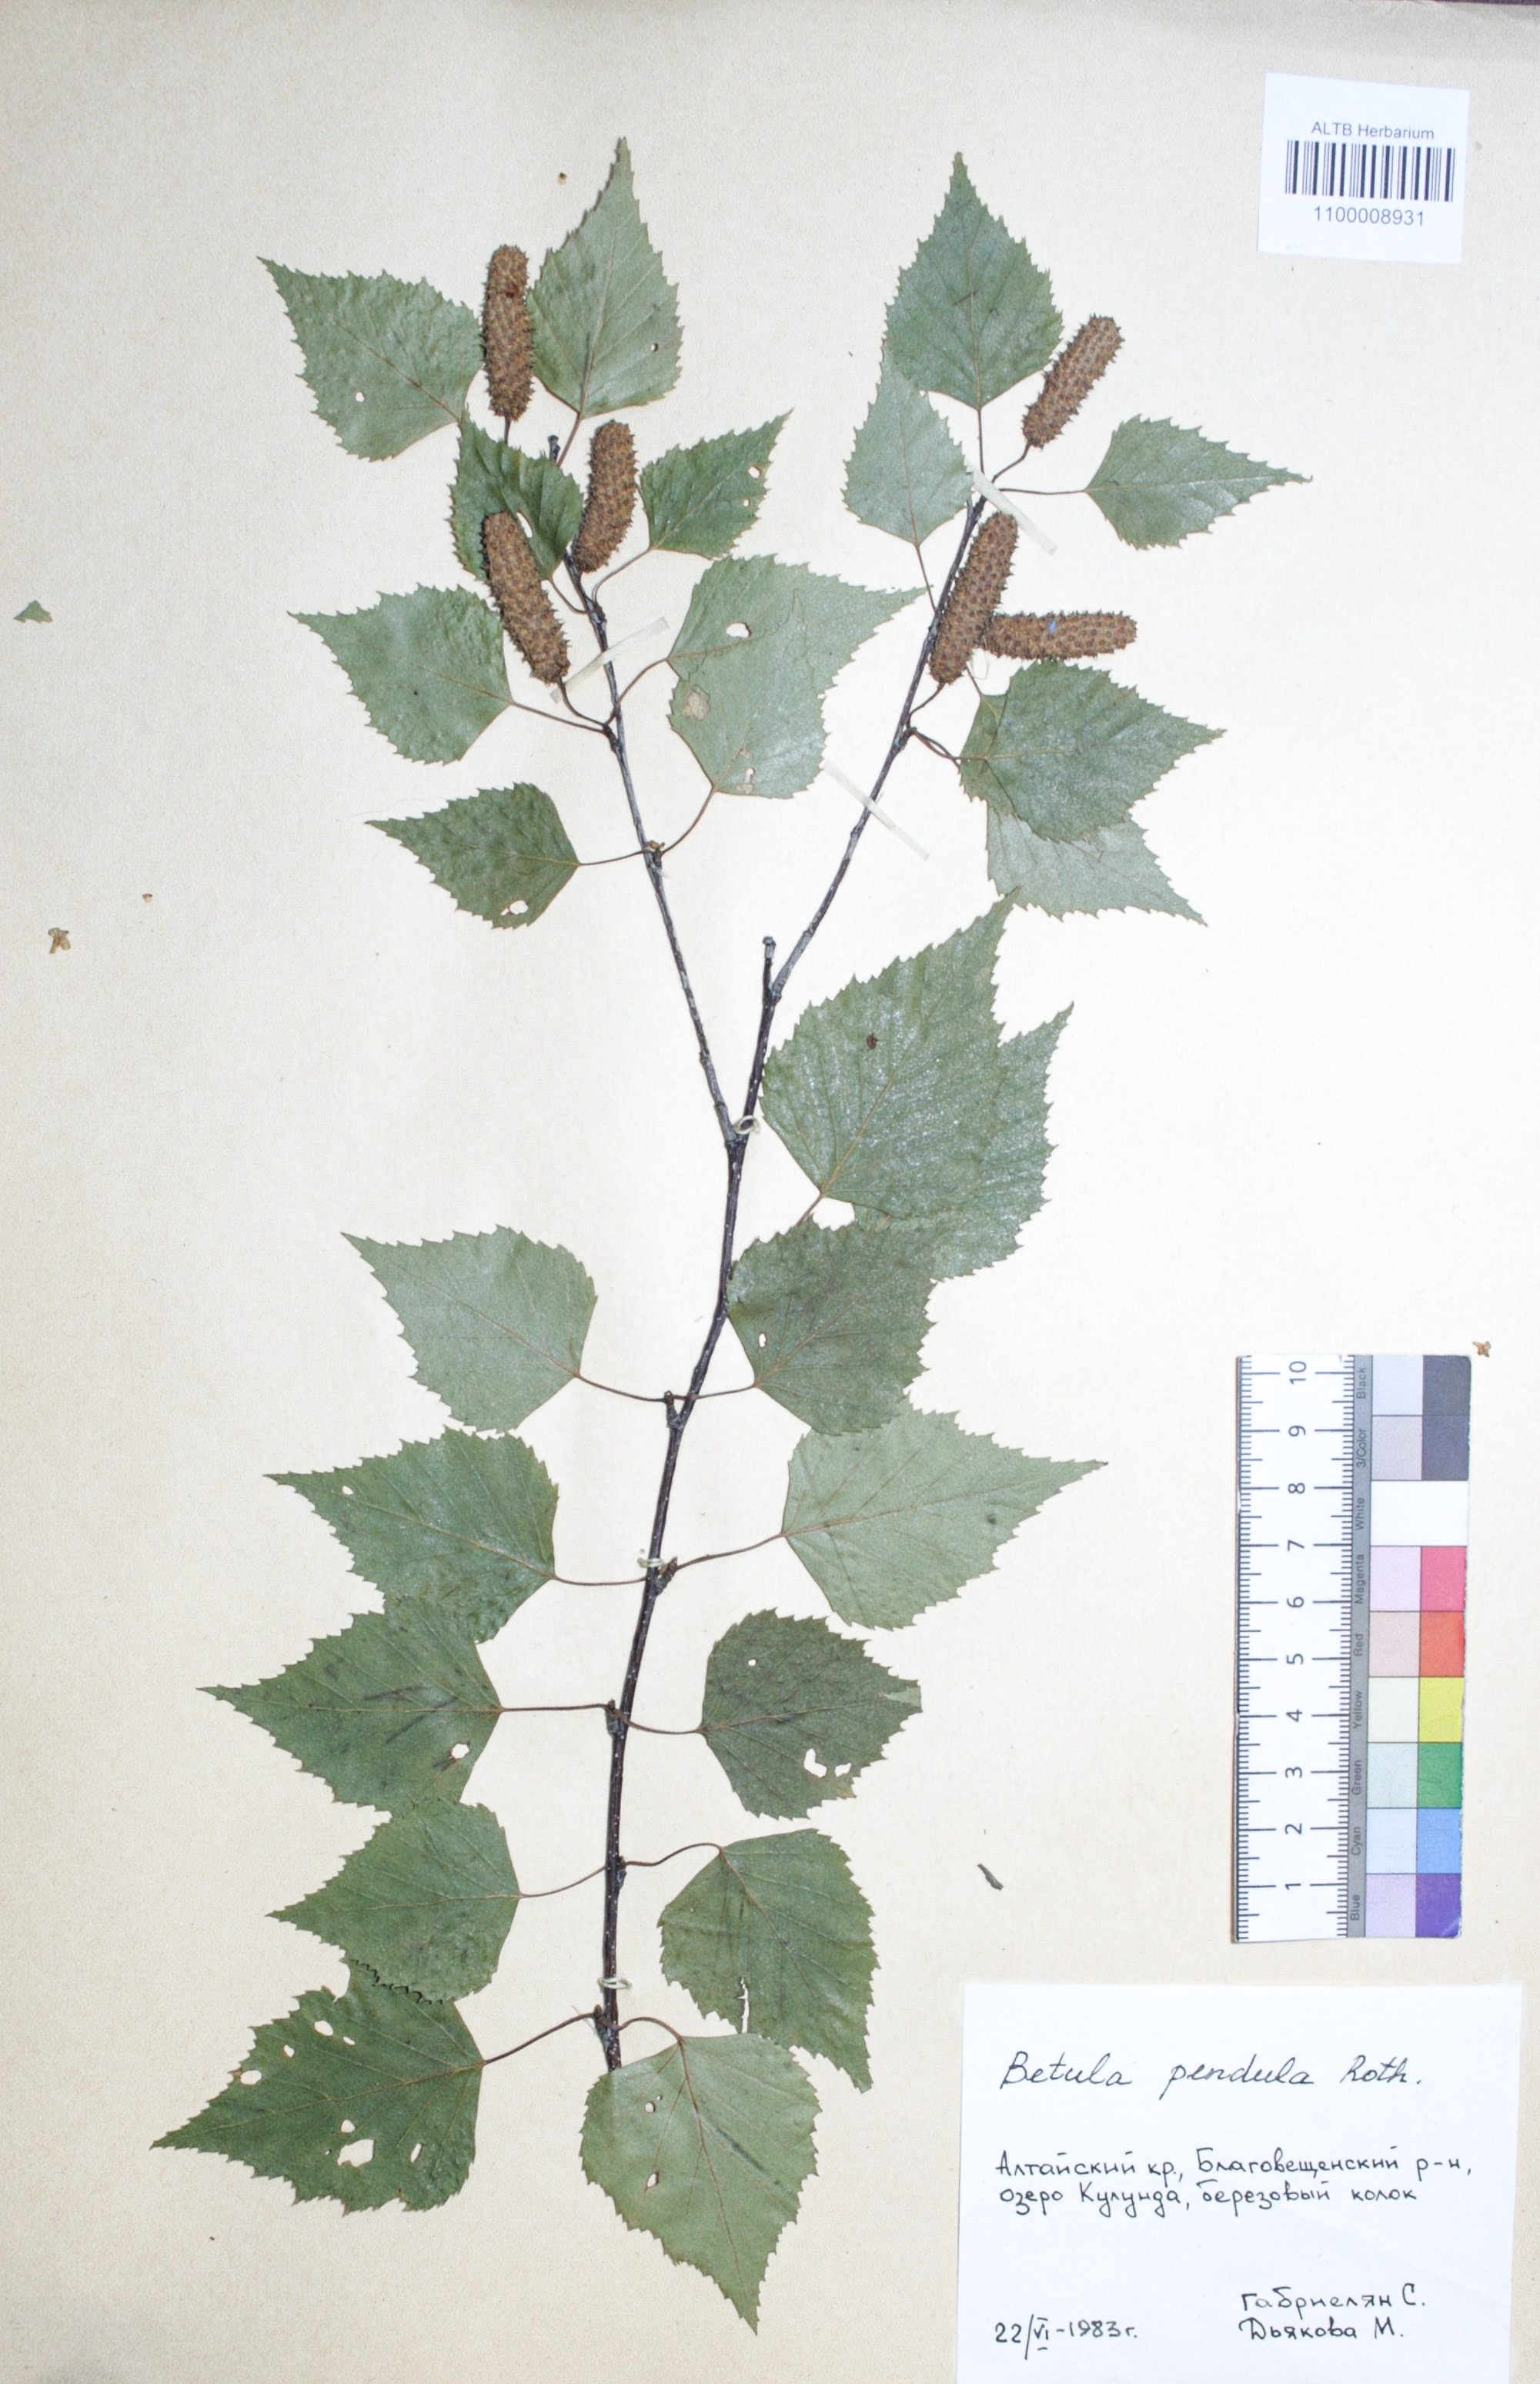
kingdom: Plantae
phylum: Tracheophyta
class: Magnoliopsida
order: Fagales
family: Betulaceae
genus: Betula
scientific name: Betula pendula
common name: Silver birch
